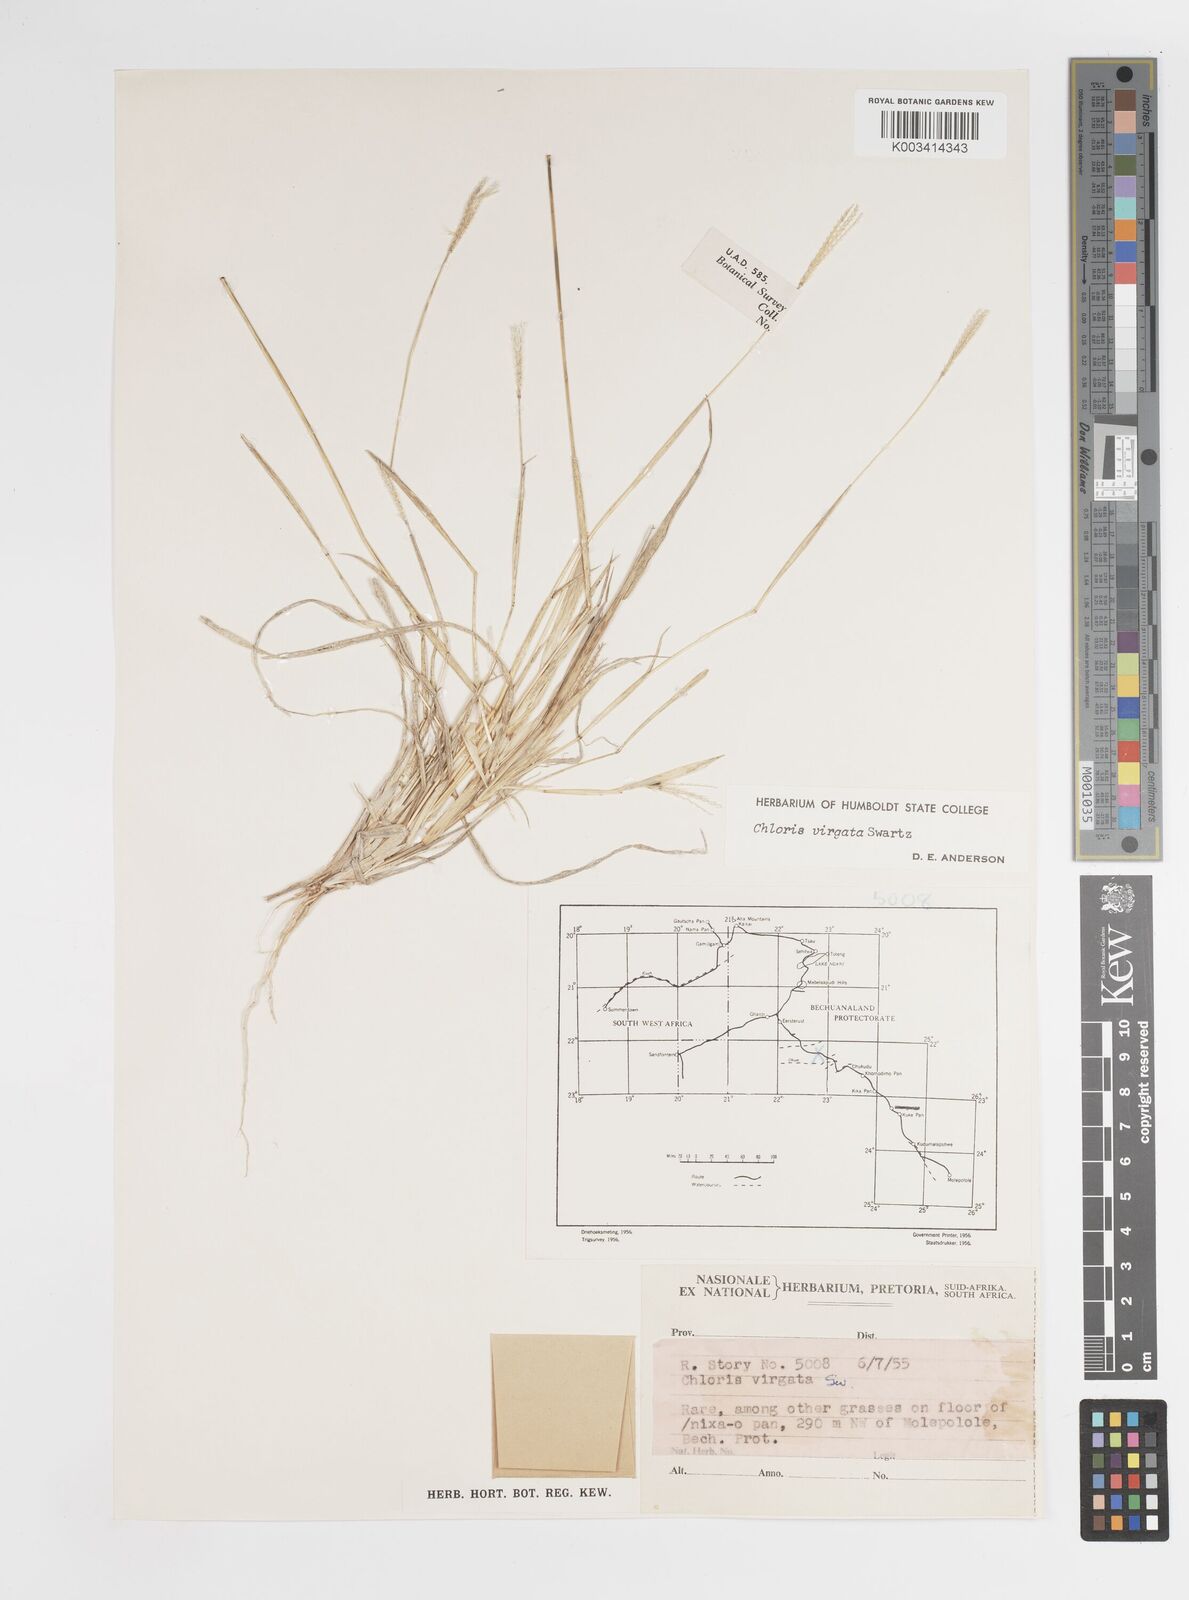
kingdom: Plantae
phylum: Tracheophyta
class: Liliopsida
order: Poales
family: Poaceae
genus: Chloris
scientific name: Chloris virgata
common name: Feathery rhodes-grass
